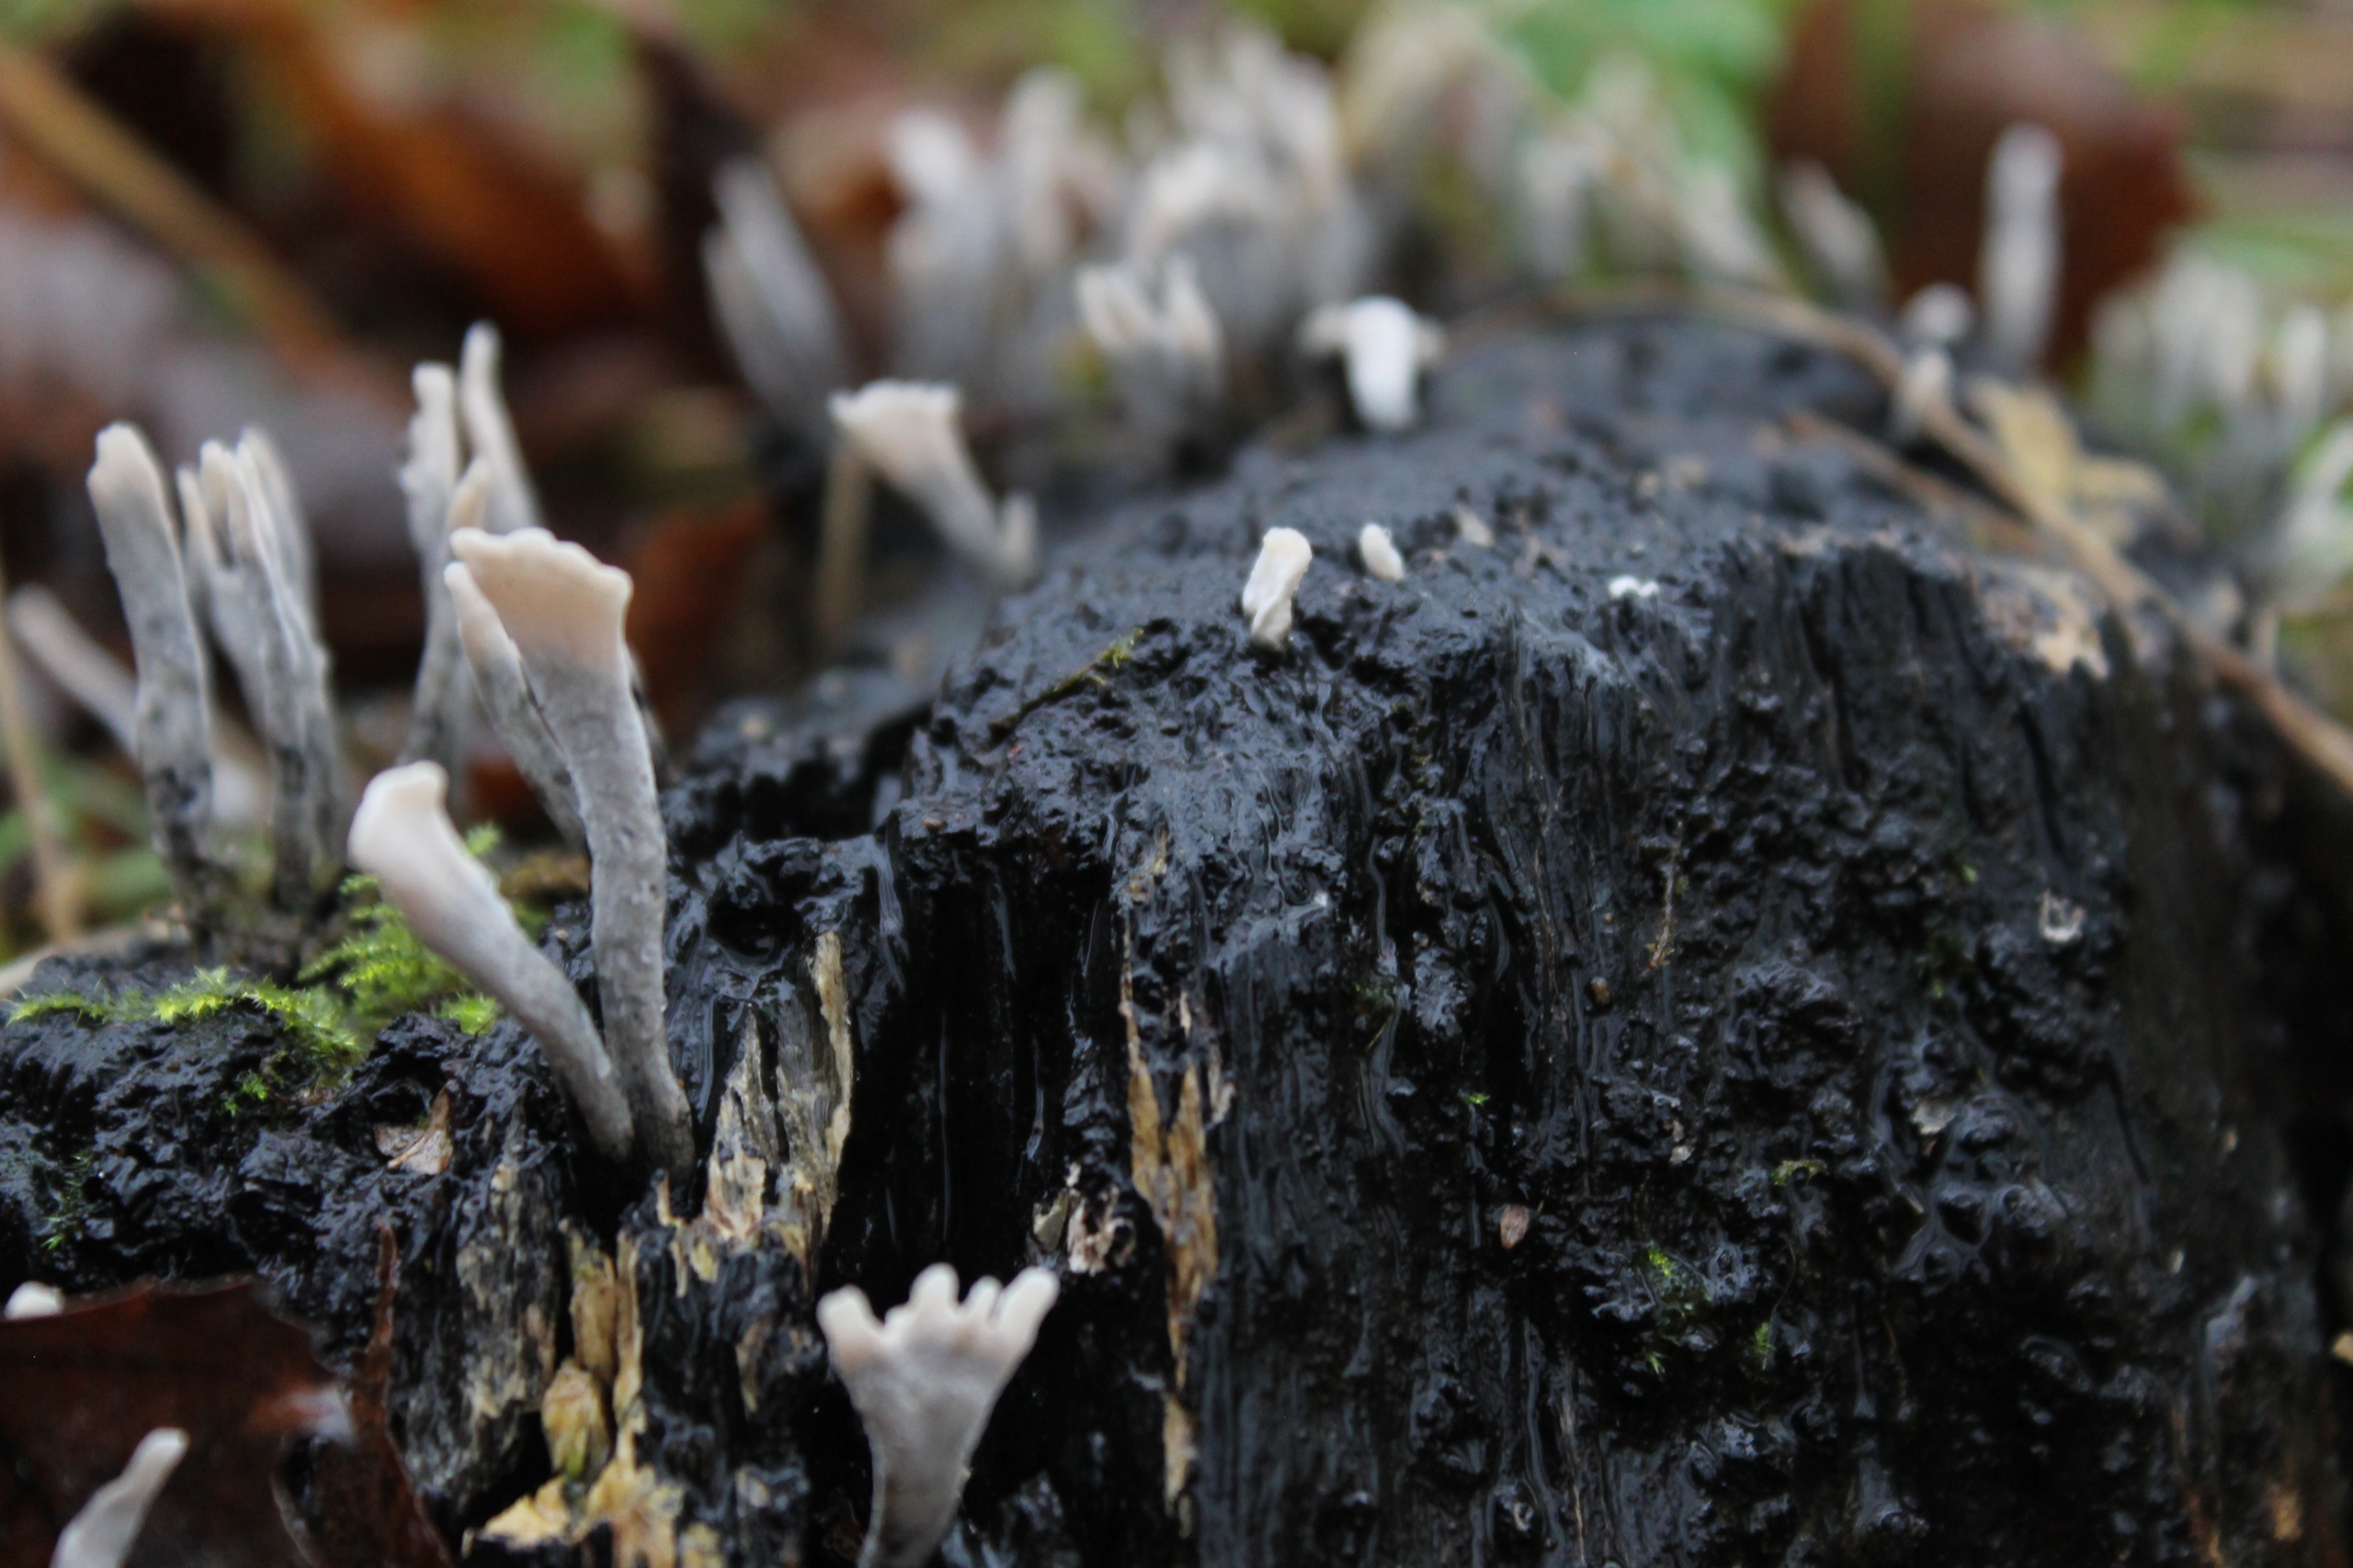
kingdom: Fungi
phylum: Ascomycota
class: Sordariomycetes
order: Xylariales
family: Xylariaceae
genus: Xylaria
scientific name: Xylaria hypoxylon
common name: Grenet stødsvamp
